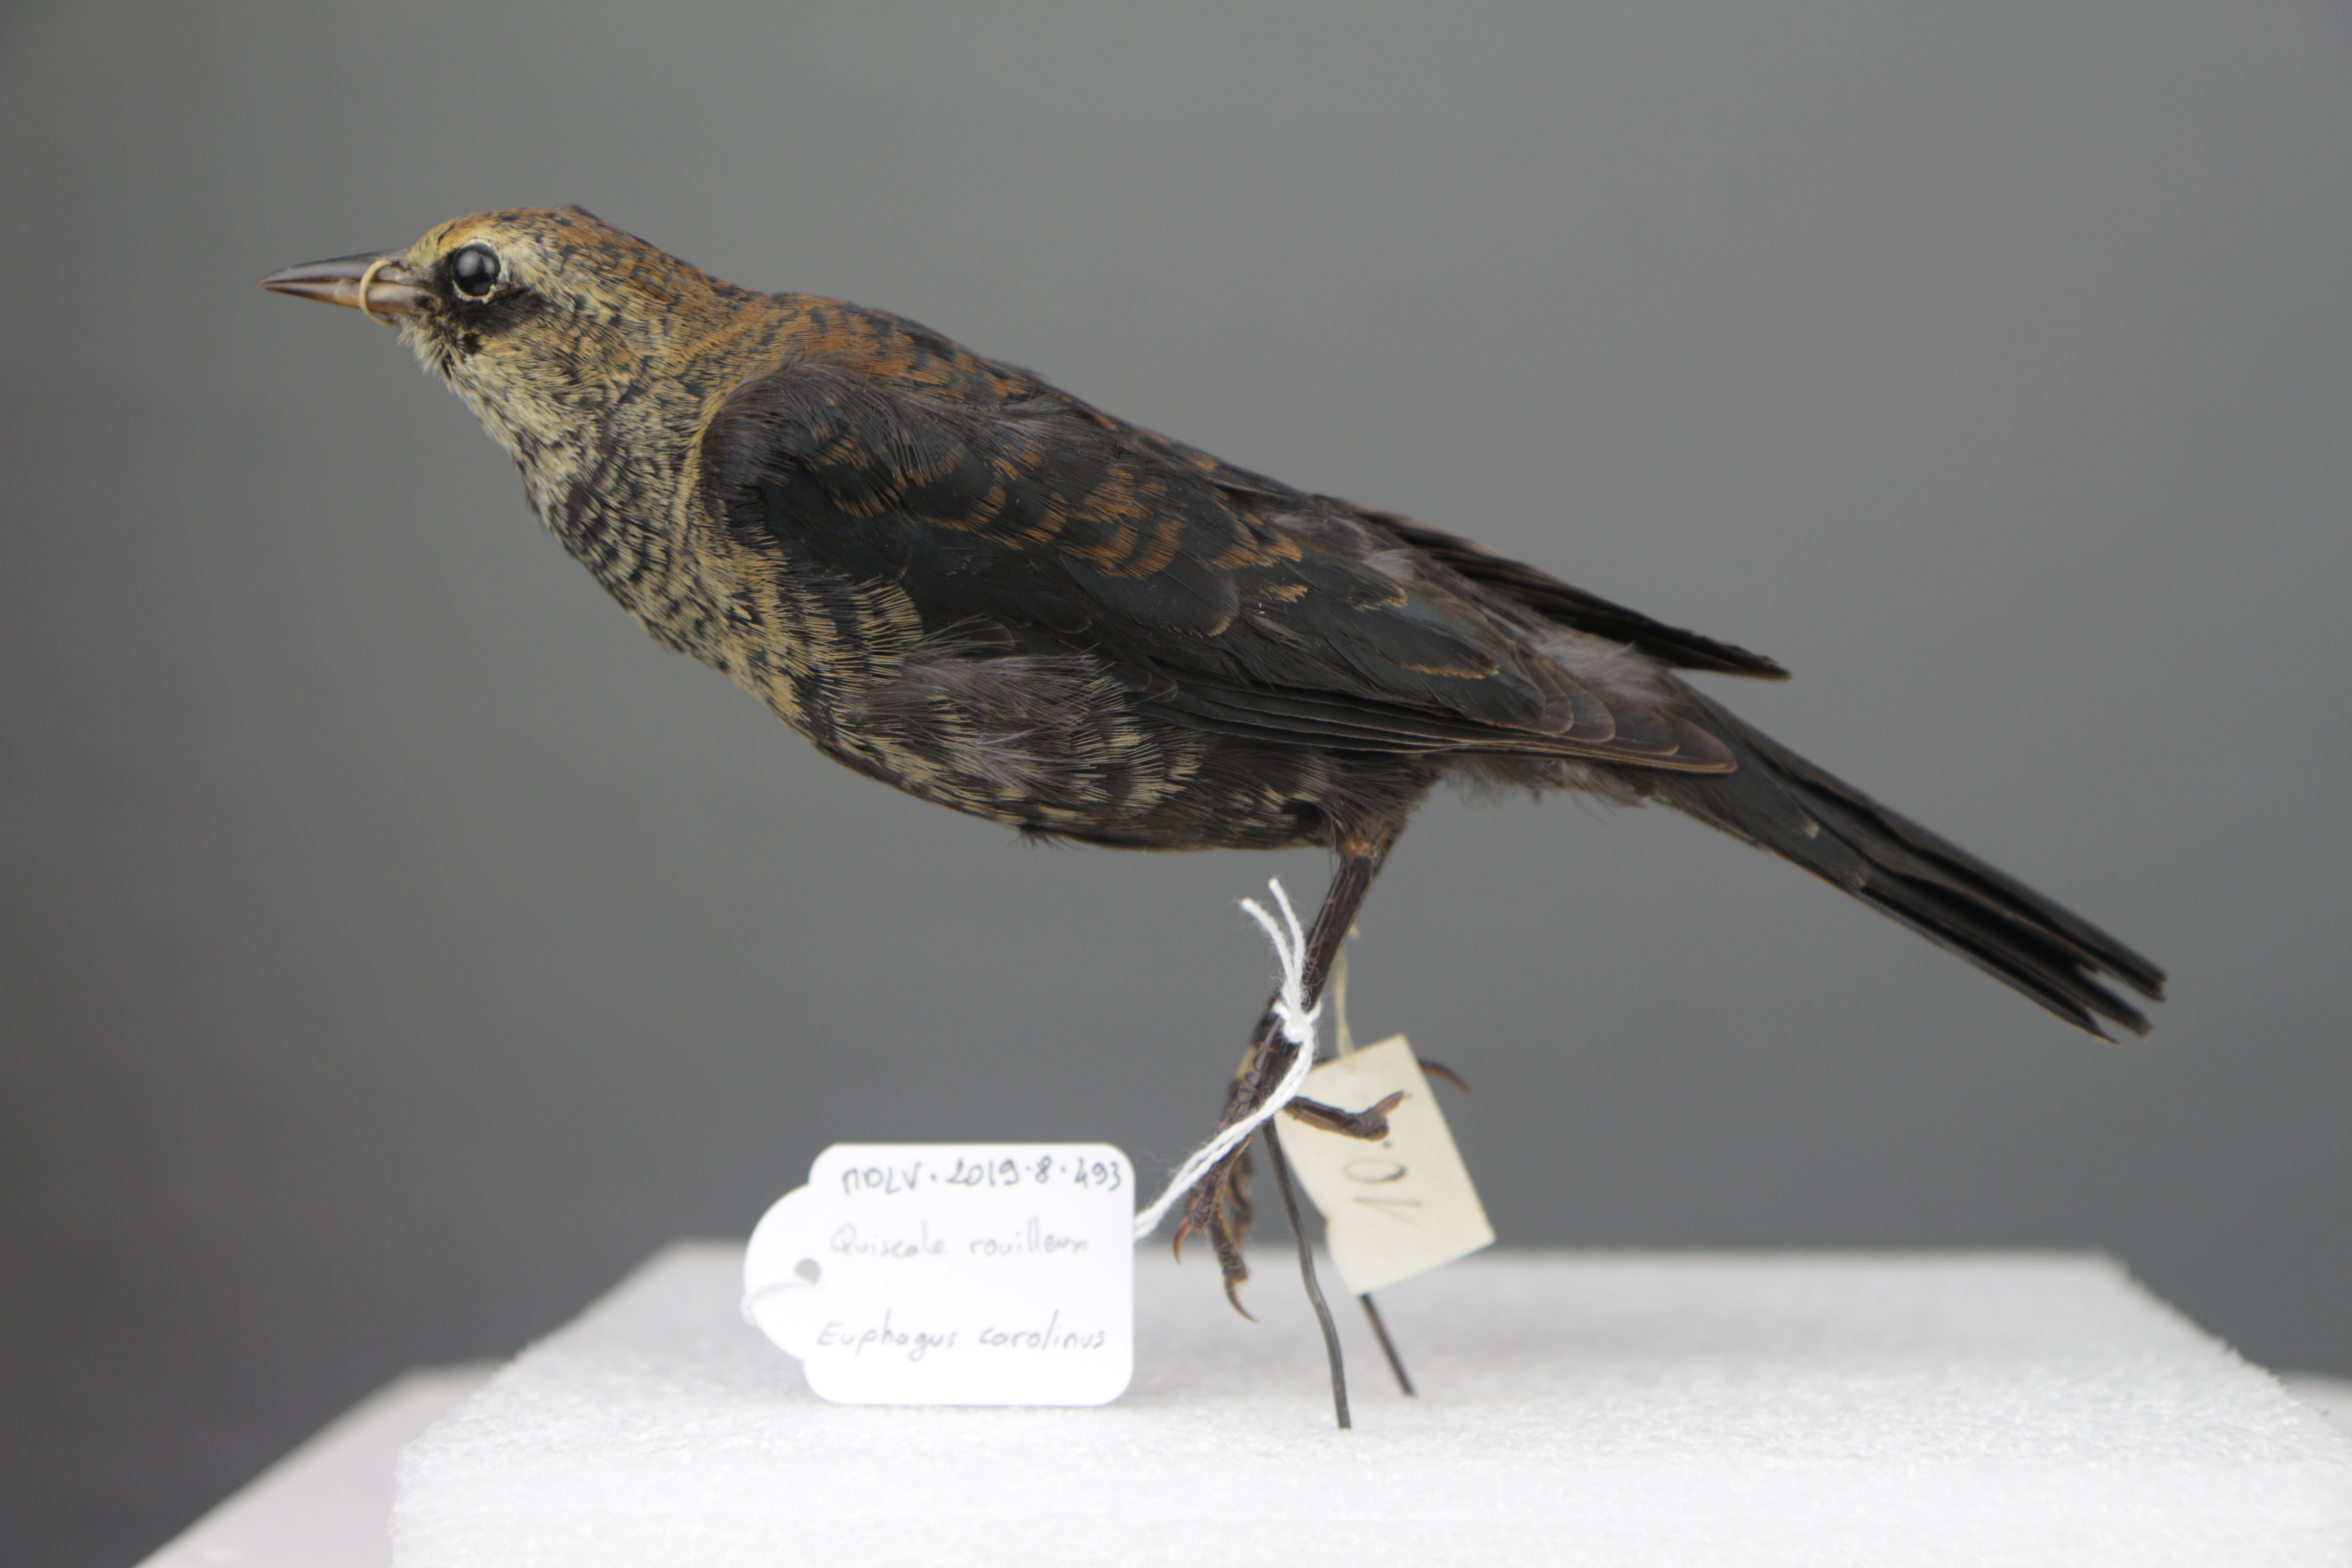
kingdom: Animalia
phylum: Chordata
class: Aves
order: Passeriformes
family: Icteridae
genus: Euphagus
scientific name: Euphagus carolinus
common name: Rusty blackbird
